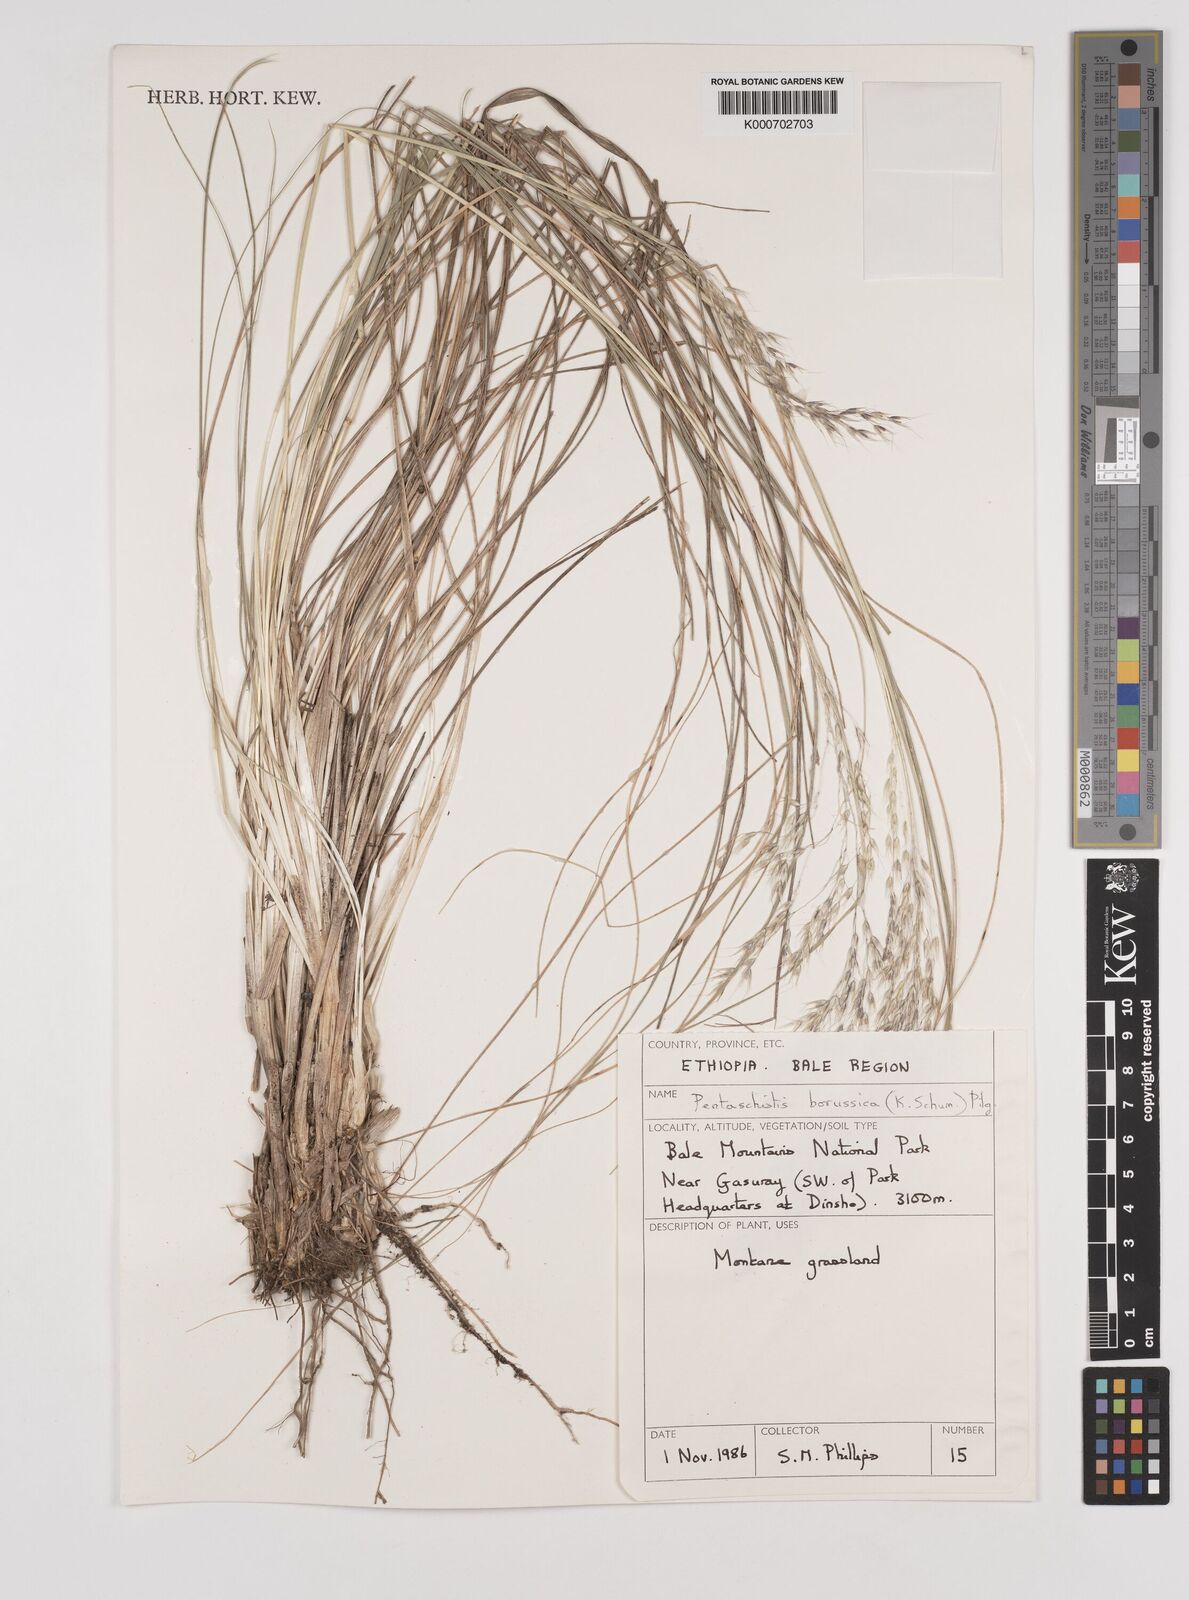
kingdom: Plantae
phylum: Tracheophyta
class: Liliopsida
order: Poales
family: Poaceae
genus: Pentameris
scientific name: Pentameris borussica
